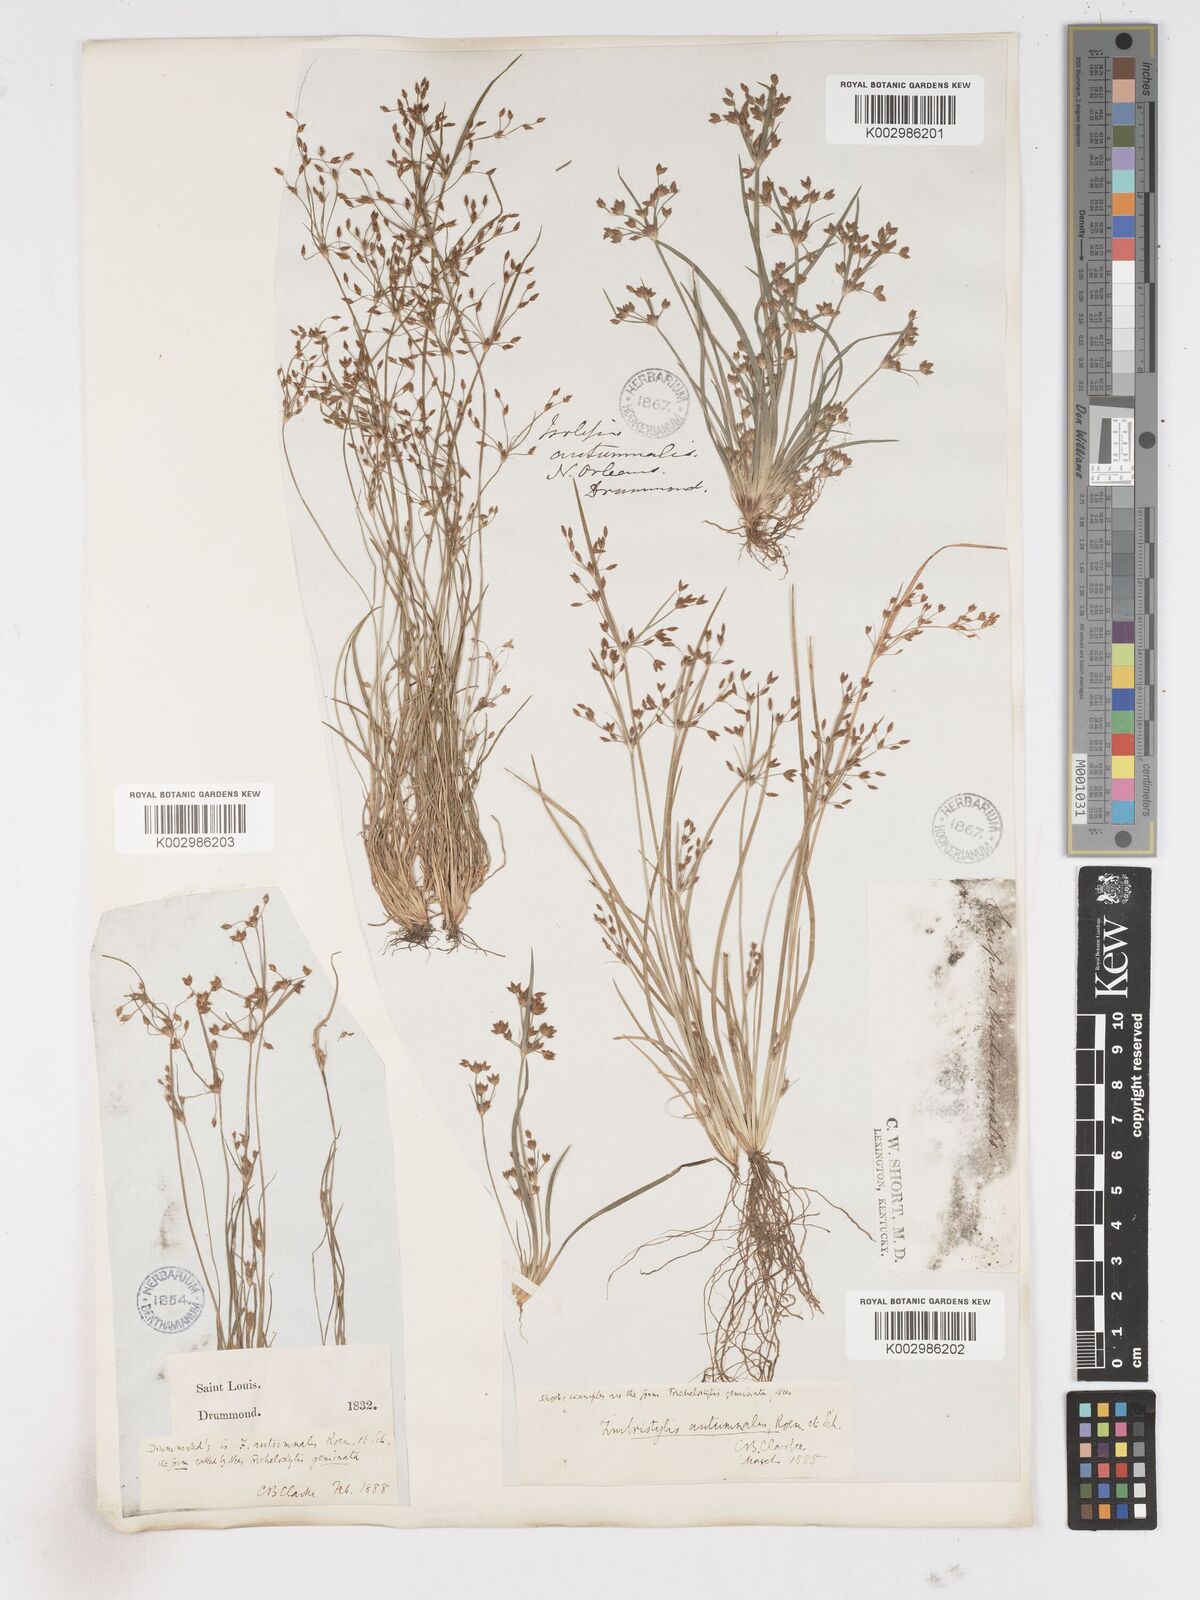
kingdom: Plantae
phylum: Tracheophyta
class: Liliopsida
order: Poales
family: Cyperaceae
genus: Fimbristylis
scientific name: Fimbristylis autumnalis
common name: Slender fimbristylis
